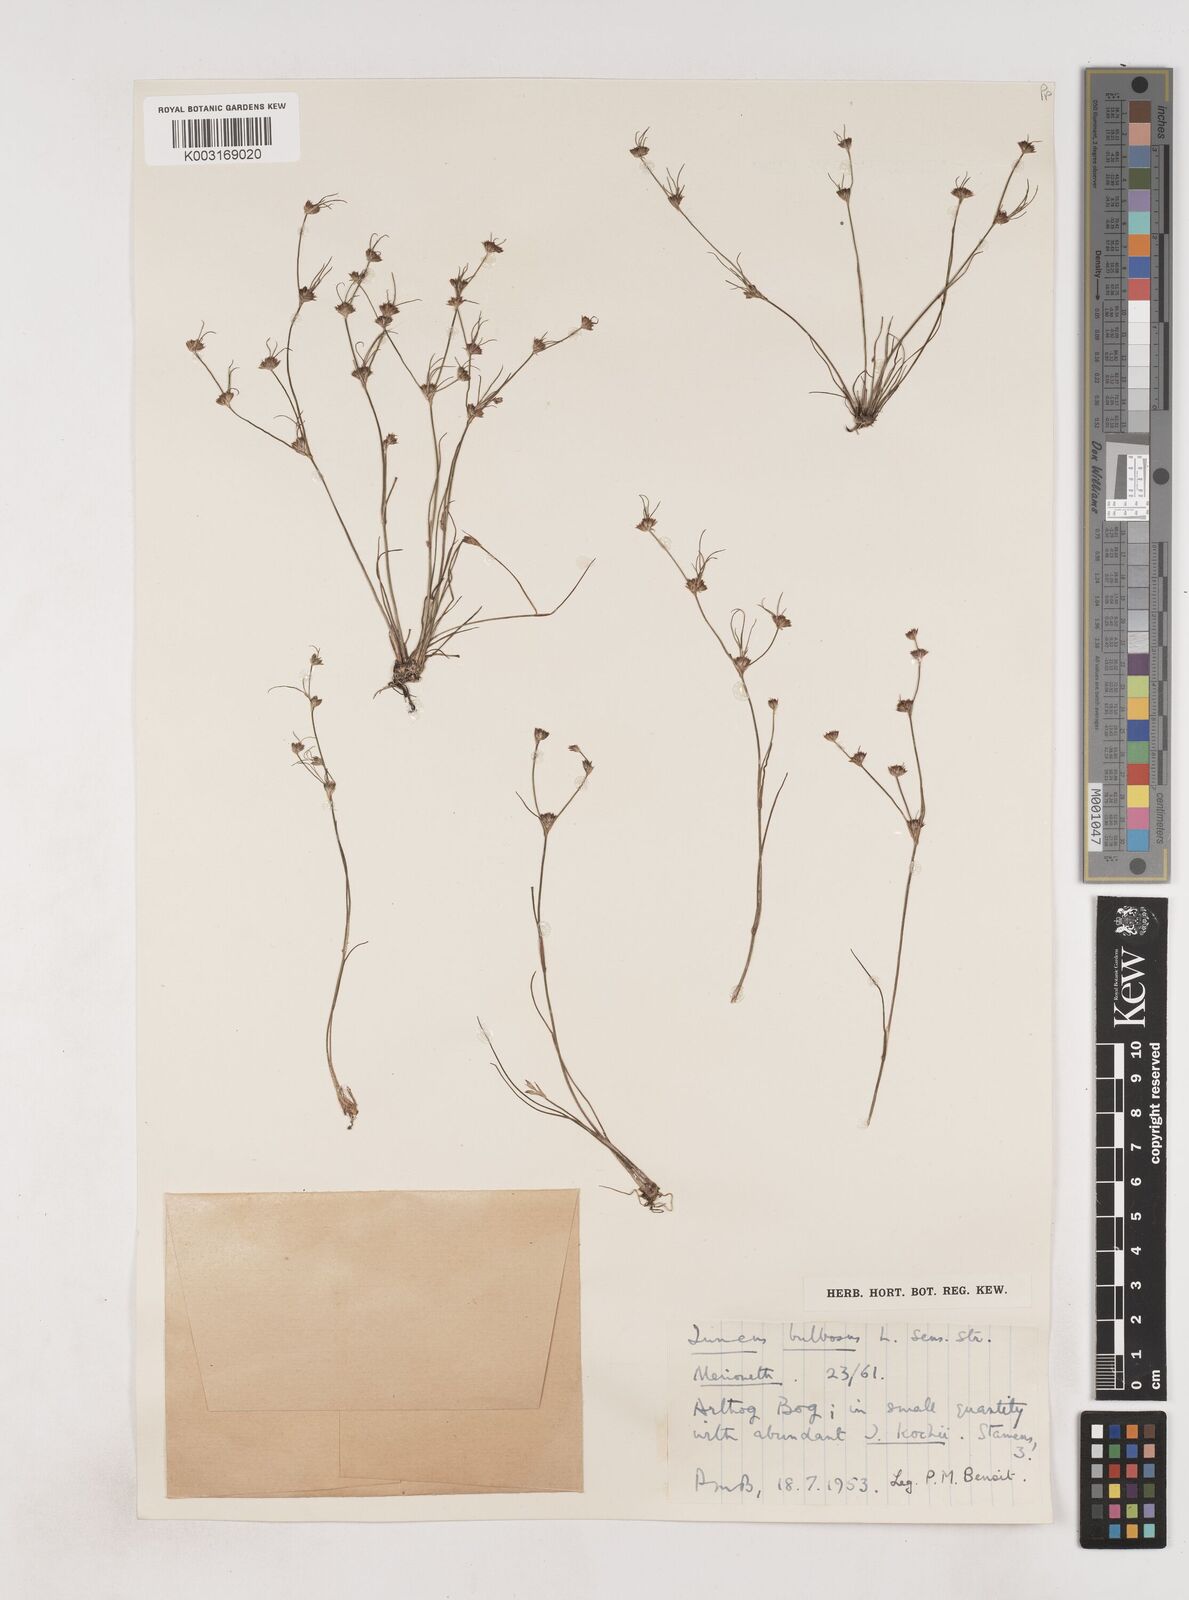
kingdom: Plantae
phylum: Tracheophyta
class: Liliopsida
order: Poales
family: Juncaceae
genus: Juncus
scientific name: Juncus bulbosus
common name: Bulbous rush
